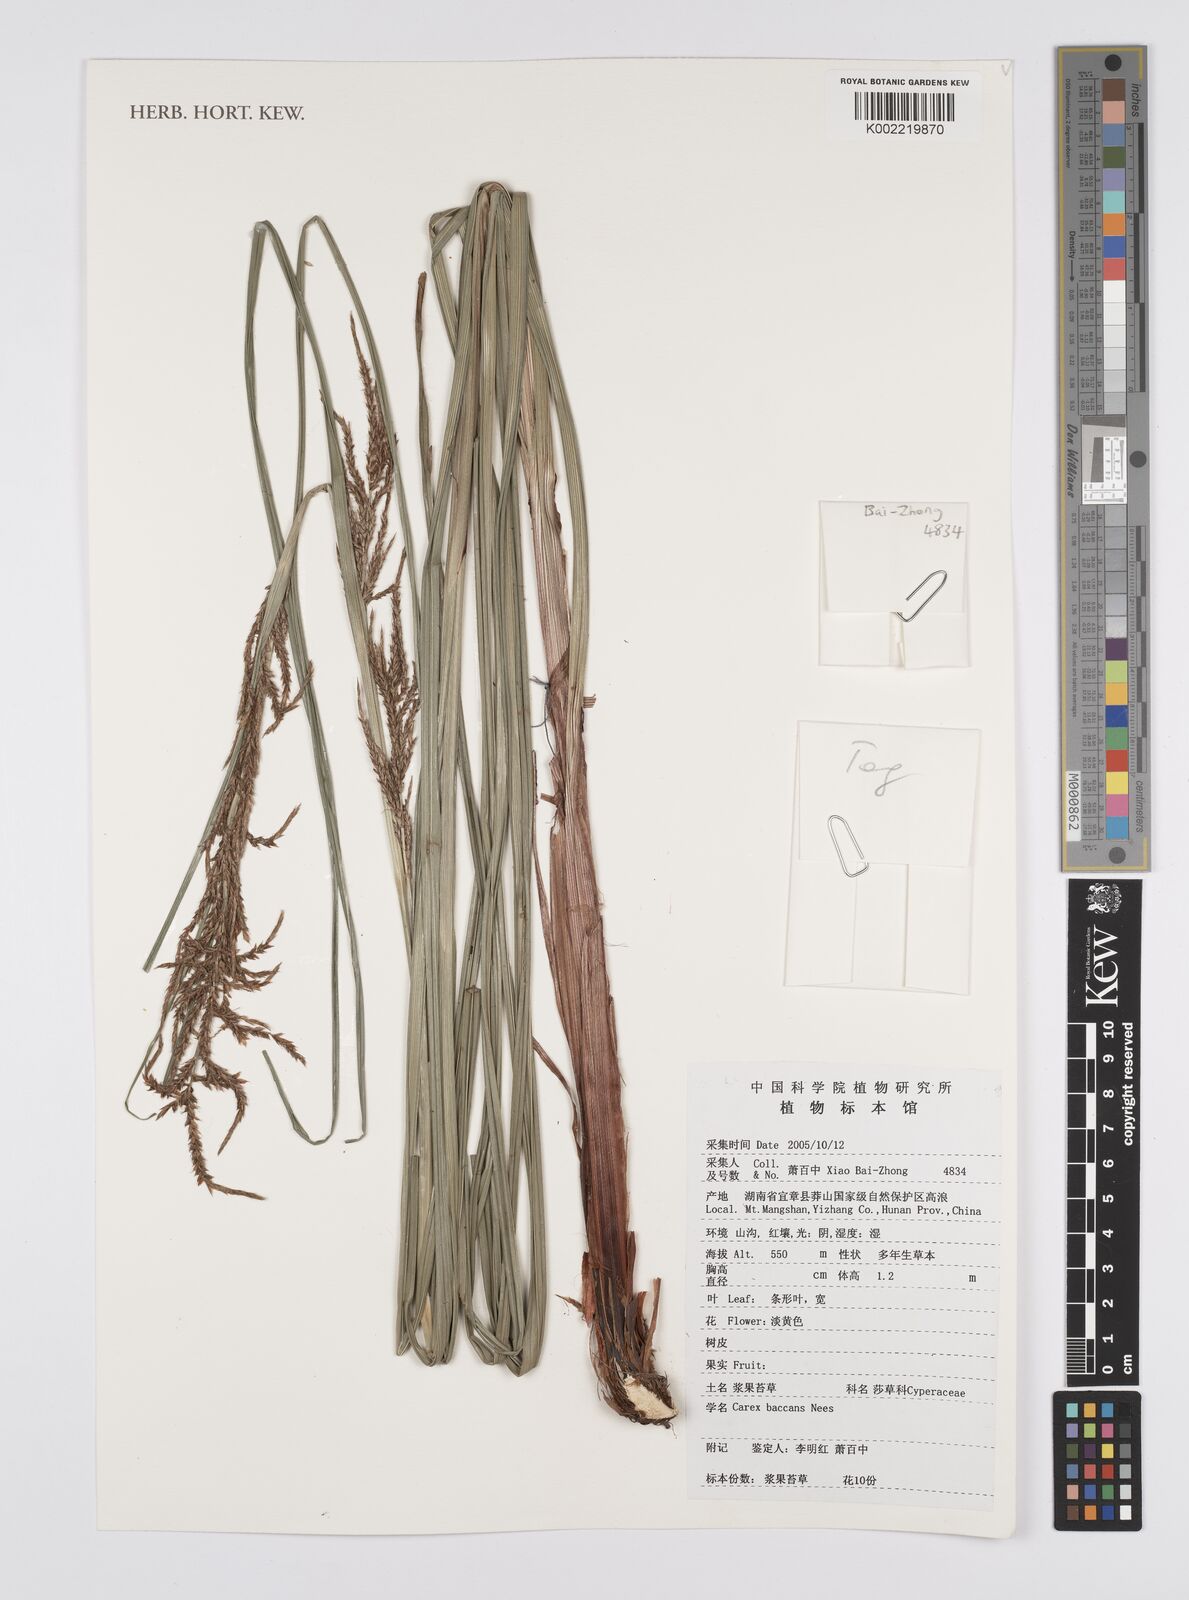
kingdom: Plantae
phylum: Tracheophyta
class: Liliopsida
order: Poales
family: Cyperaceae
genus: Carex
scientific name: Carex baccans
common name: Crimson seeded sedge
